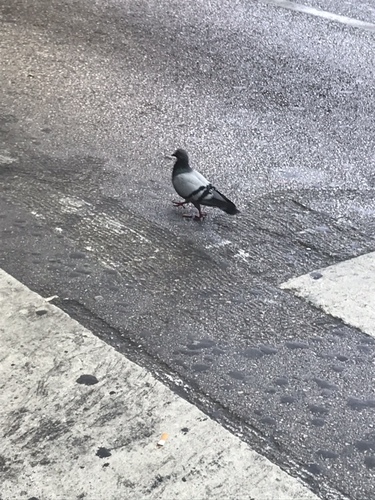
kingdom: Animalia
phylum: Chordata
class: Aves
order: Columbiformes
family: Columbidae
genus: Columba
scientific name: Columba livia
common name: Rock pigeon
